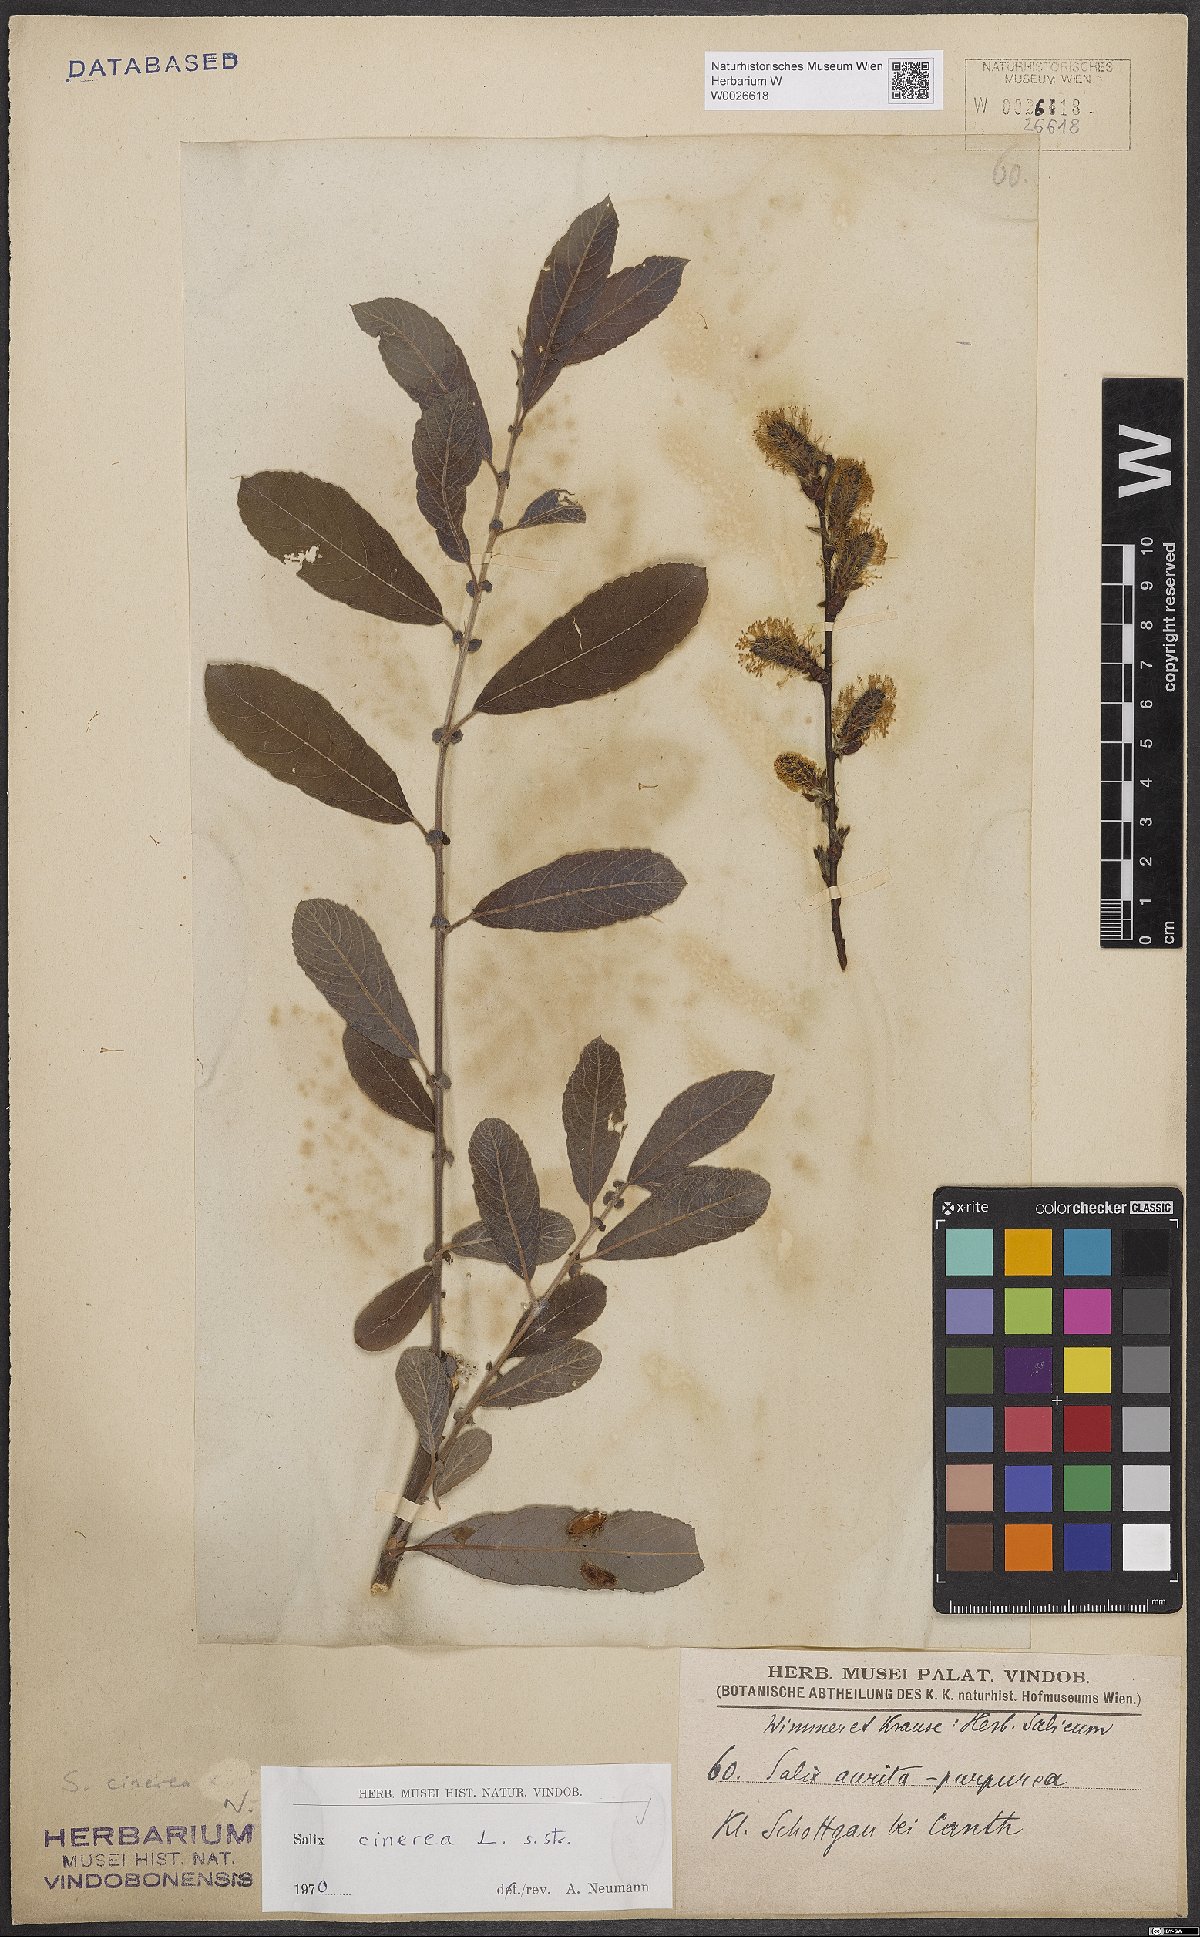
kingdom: Plantae
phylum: Tracheophyta
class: Magnoliopsida
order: Malpighiales
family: Salicaceae
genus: Salix
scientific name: Salix cinerea
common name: Common sallow
